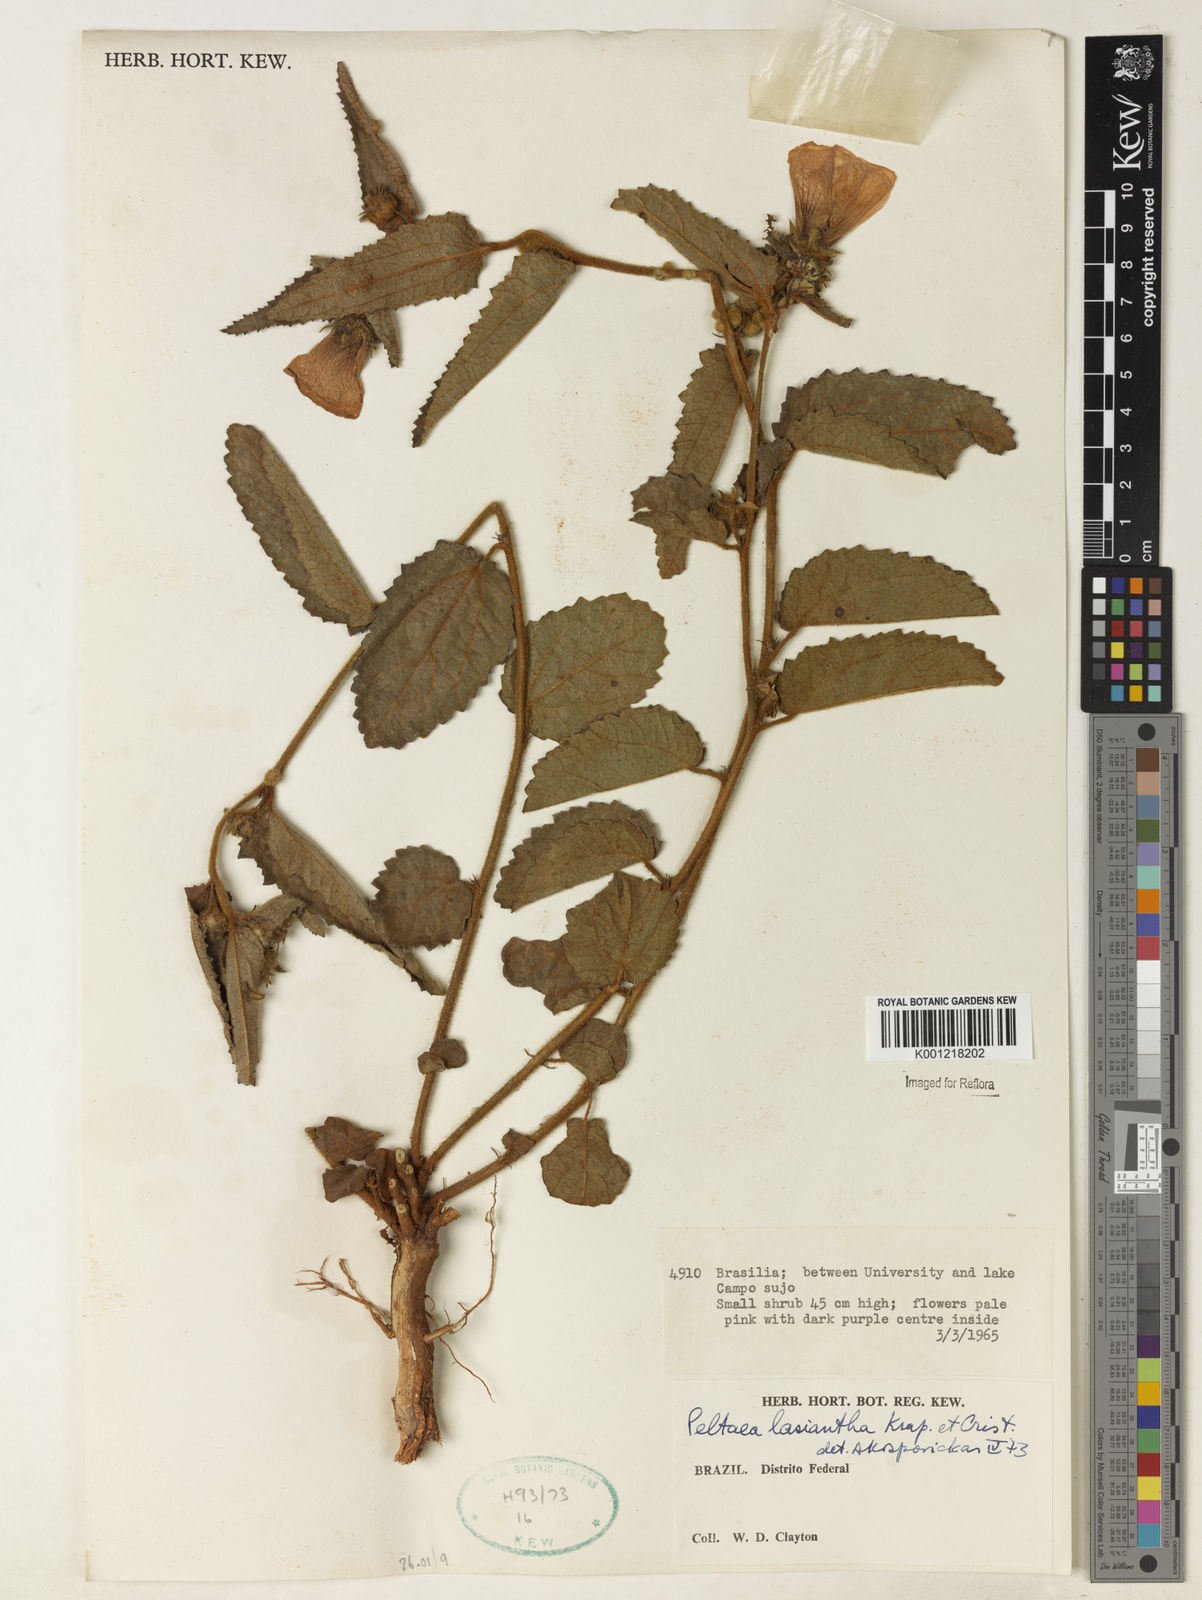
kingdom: Plantae
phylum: Tracheophyta
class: Magnoliopsida
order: Malvales
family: Malvaceae
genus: Peltaea
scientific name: Peltaea
